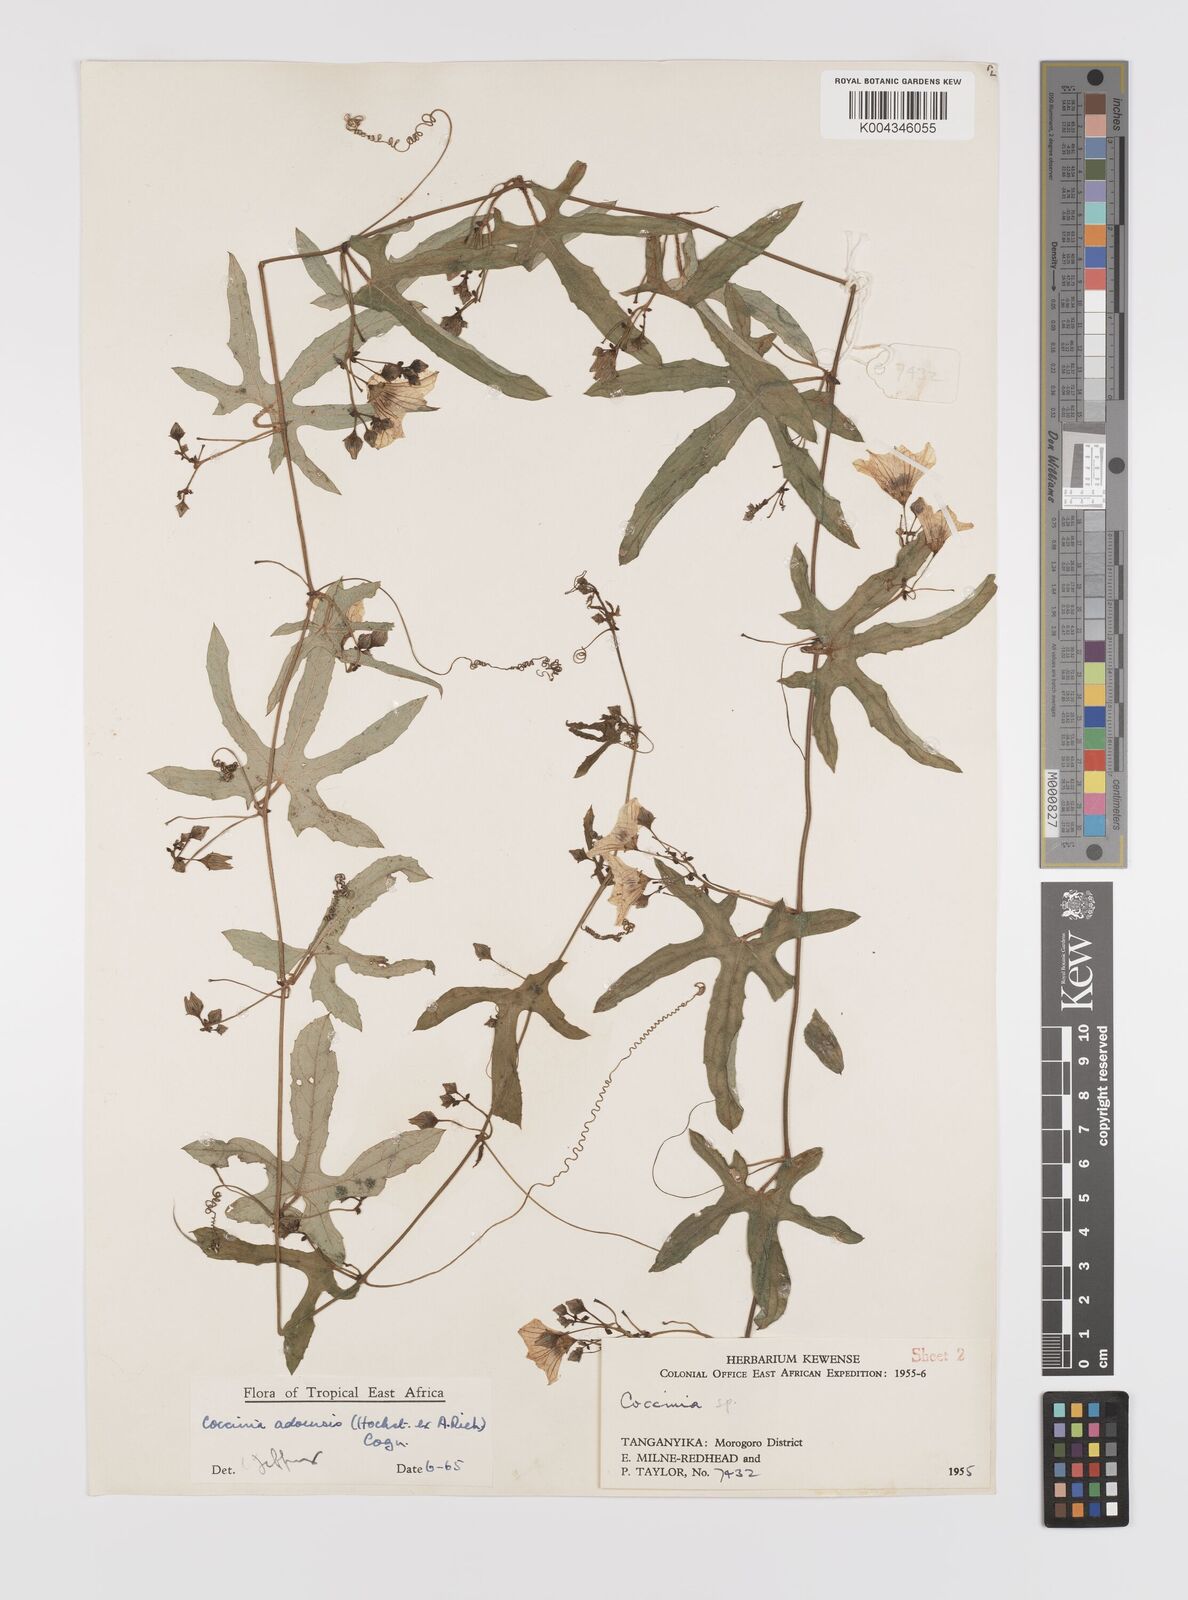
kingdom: Plantae
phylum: Tracheophyta
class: Magnoliopsida
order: Cucurbitales
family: Cucurbitaceae
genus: Coccinia
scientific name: Coccinia adoensis
